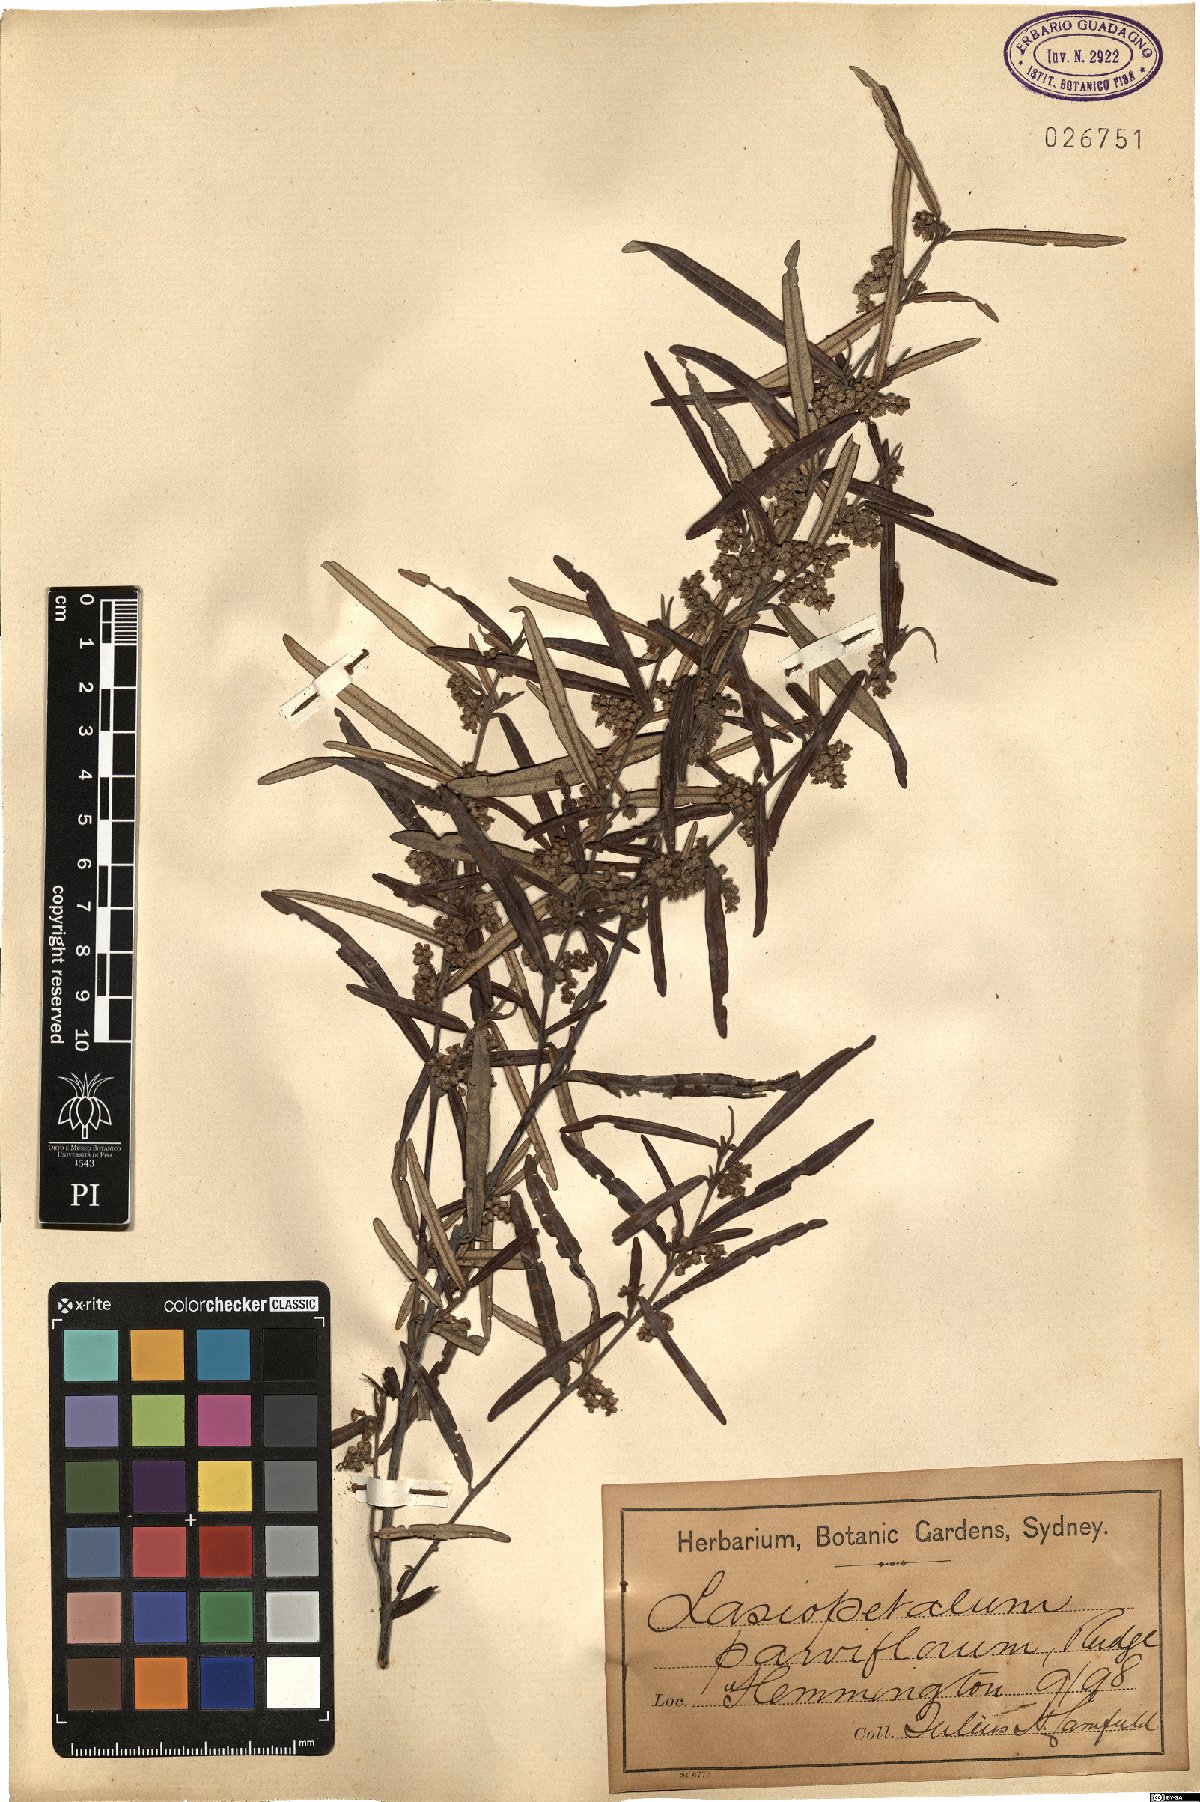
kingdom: Plantae
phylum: Tracheophyta
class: Magnoliopsida
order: Malvales
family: Malvaceae
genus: Lasiopetalum
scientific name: Lasiopetalum parviflorum
